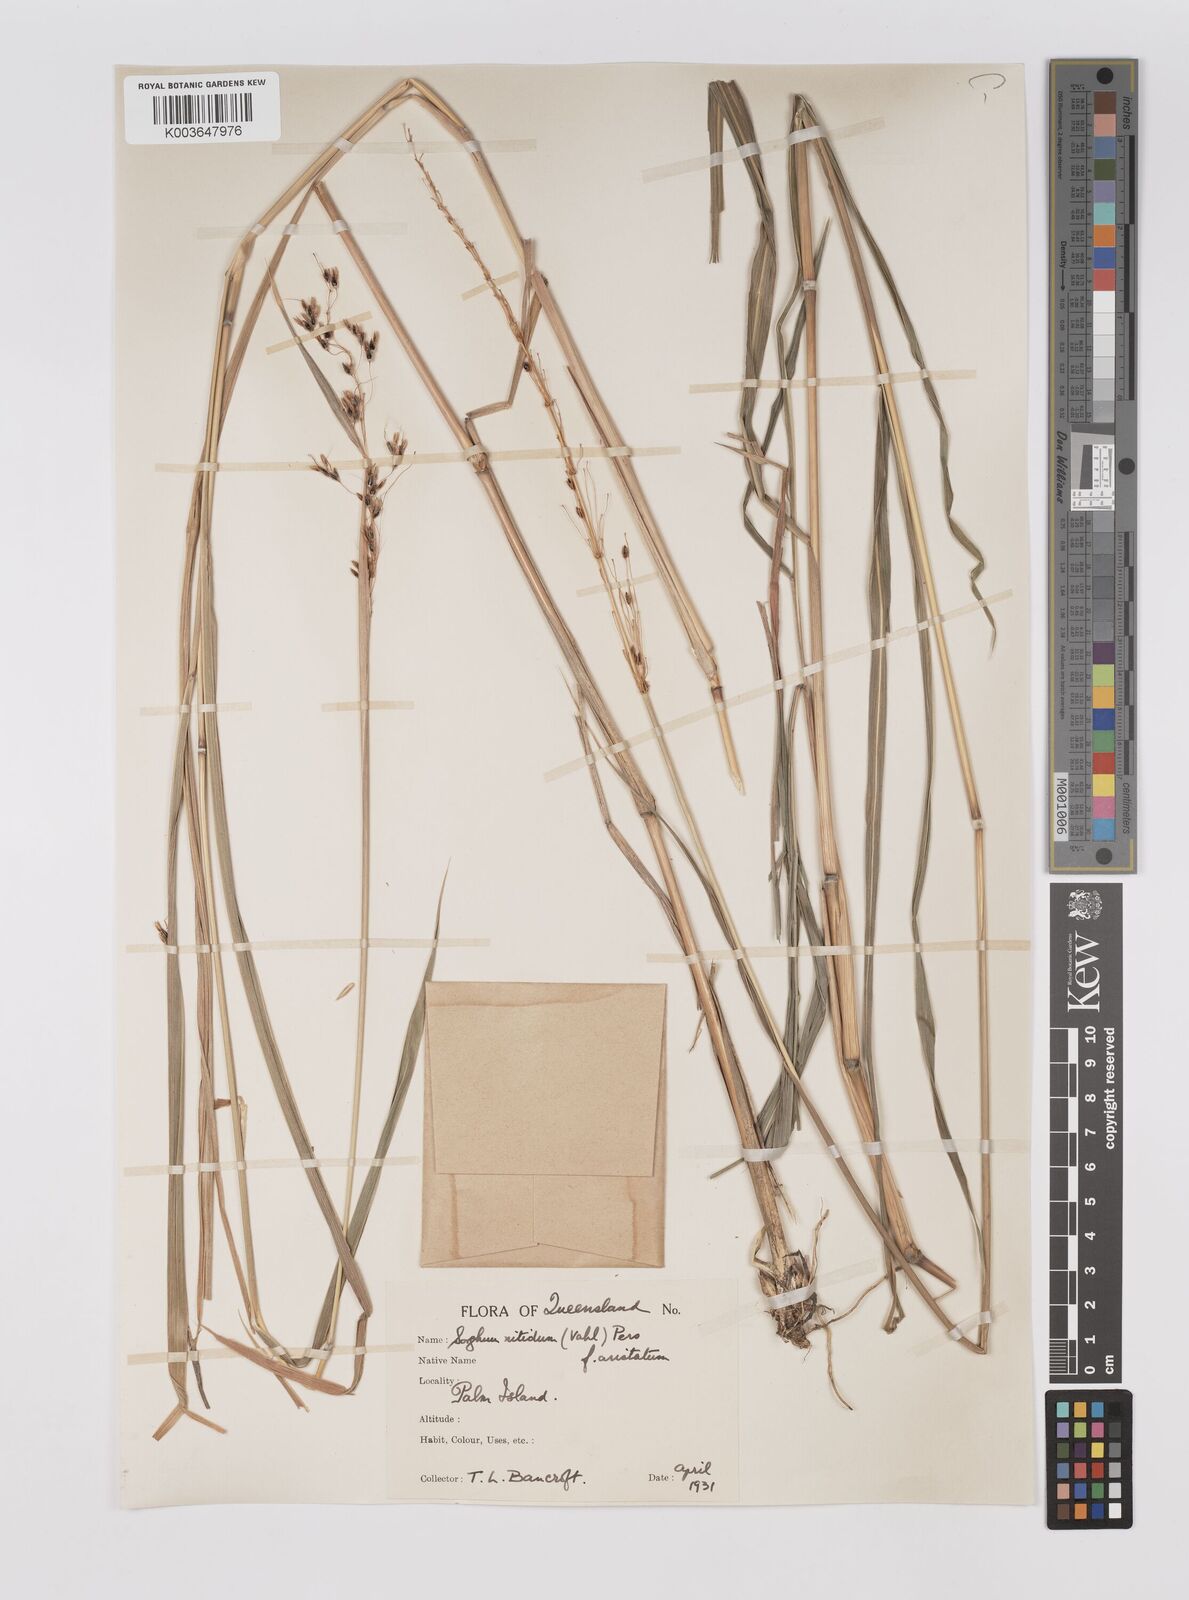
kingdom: Plantae
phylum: Tracheophyta
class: Liliopsida
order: Poales
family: Poaceae
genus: Sorghum
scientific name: Sorghum nitidum
